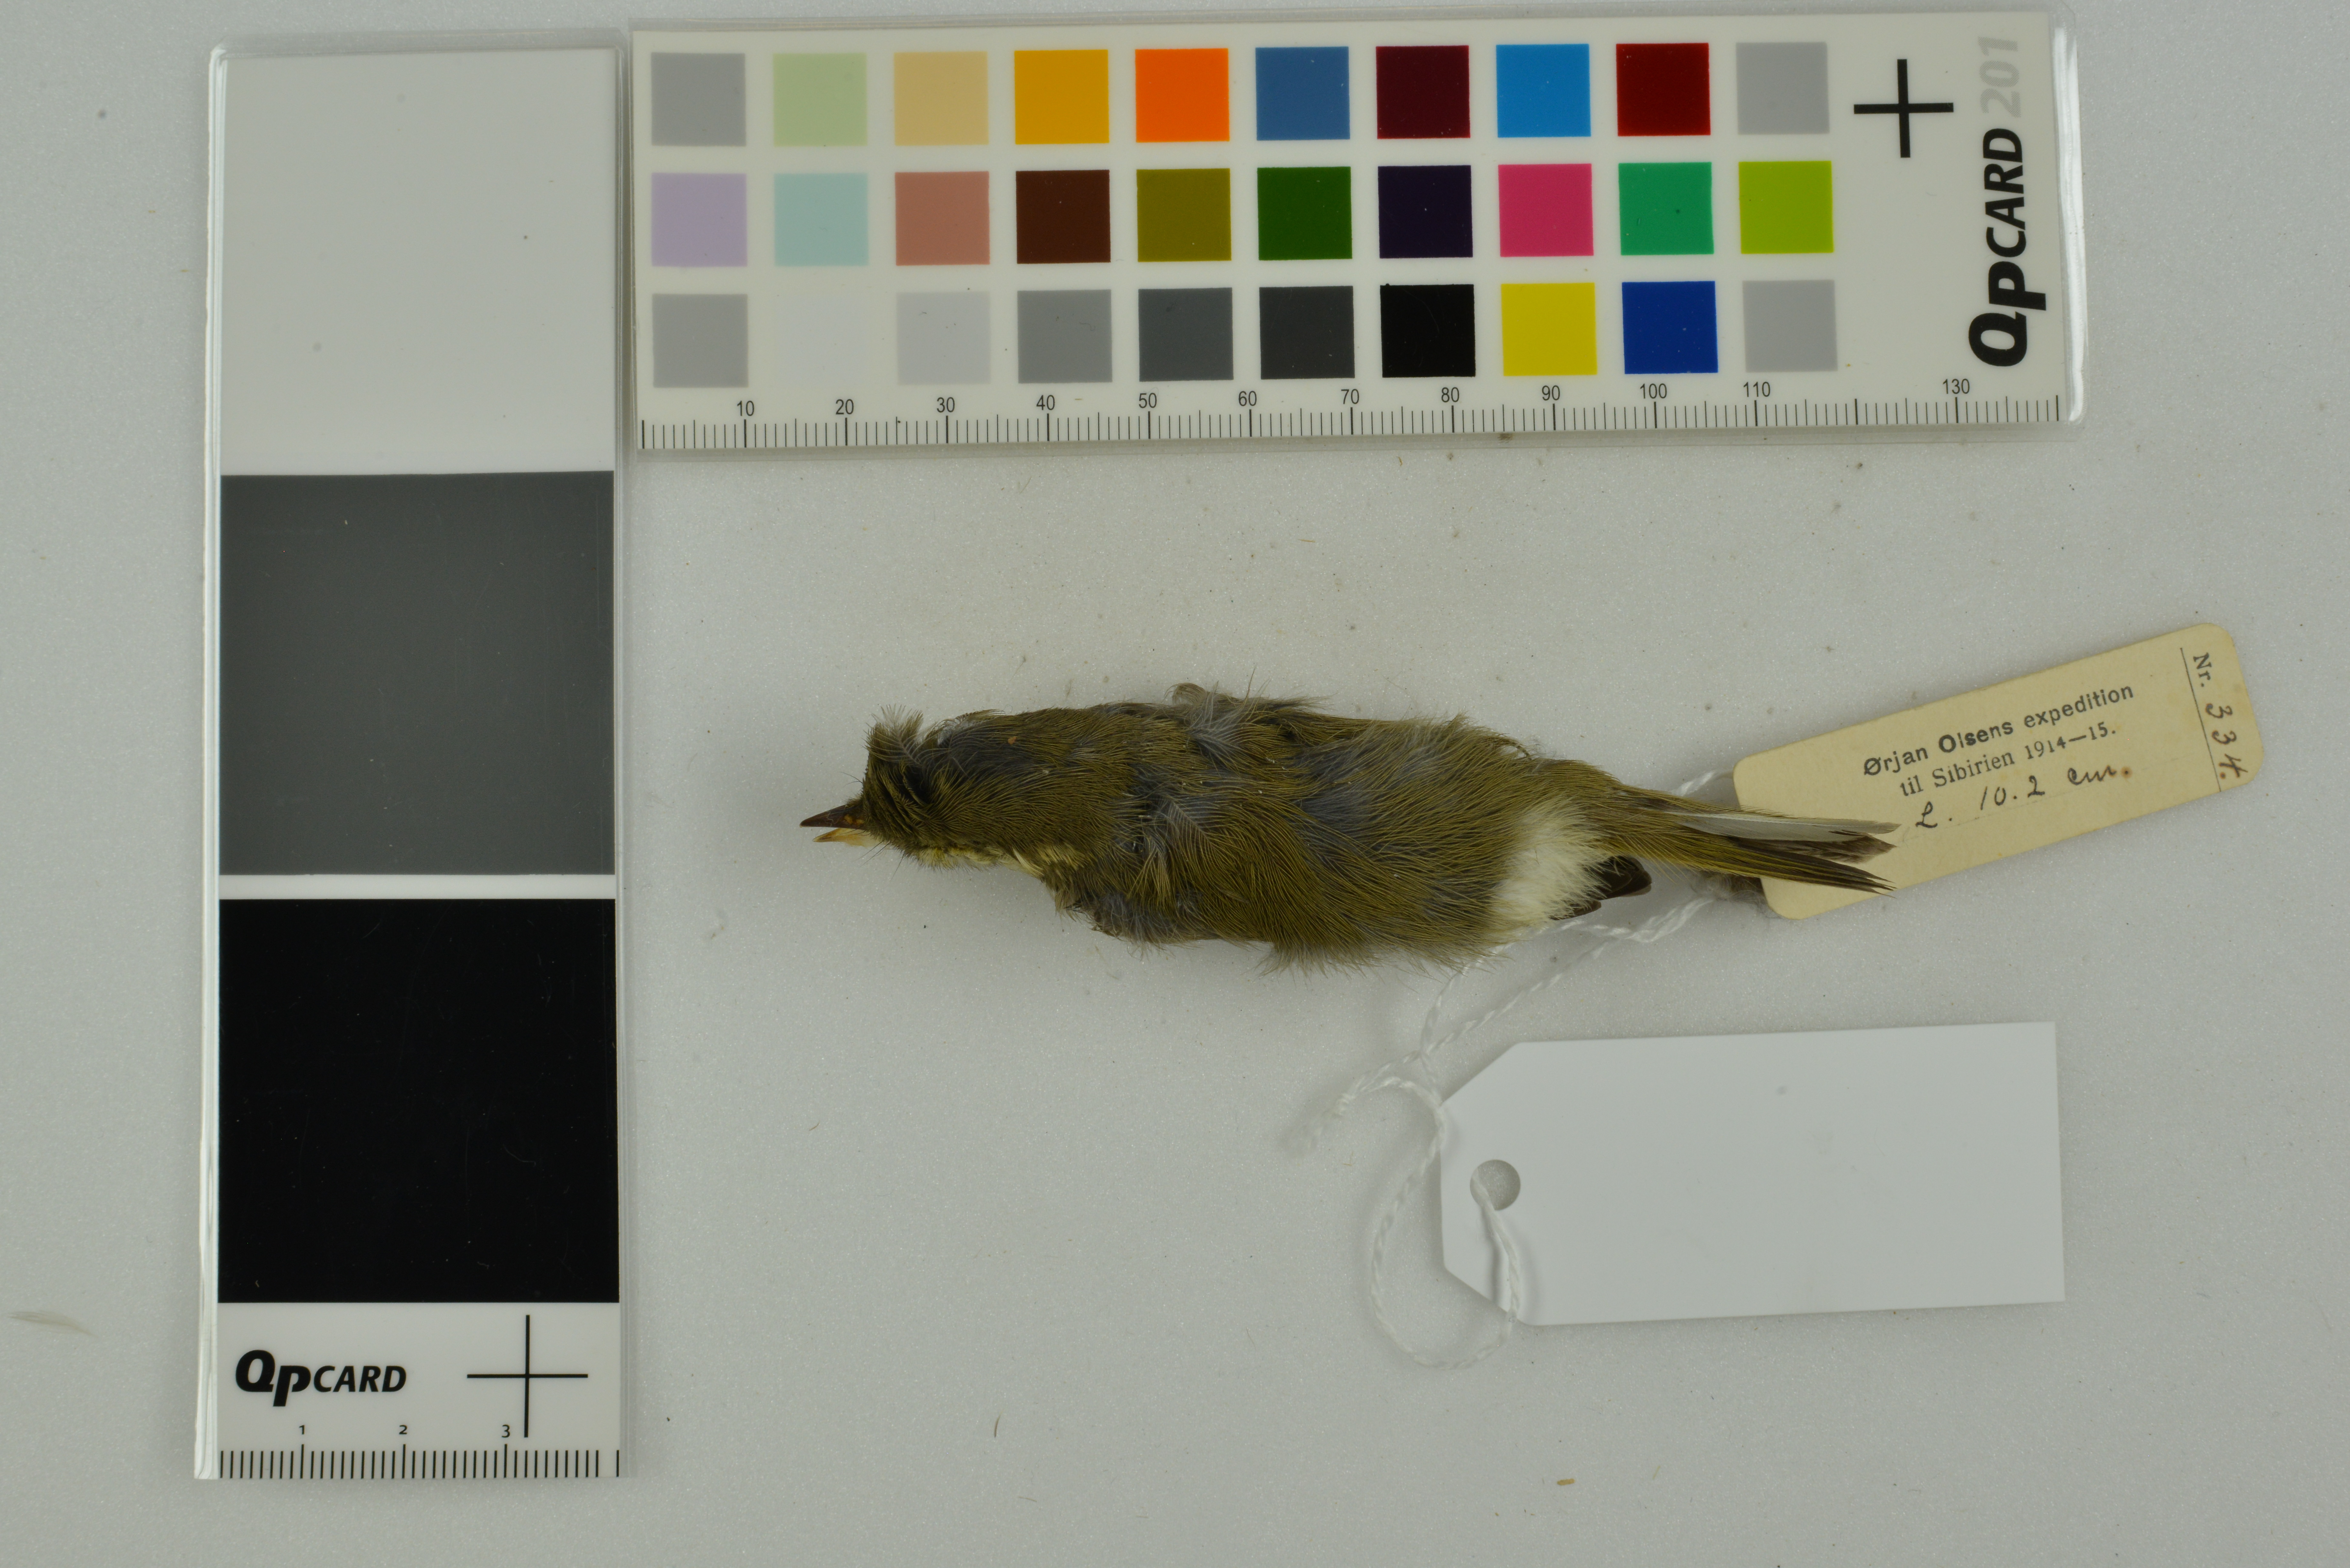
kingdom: Animalia
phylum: Chordata
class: Aves
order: Passeriformes
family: Phylloscopidae
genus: Phylloscopus
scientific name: Phylloscopus nitidus
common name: Green warbler
